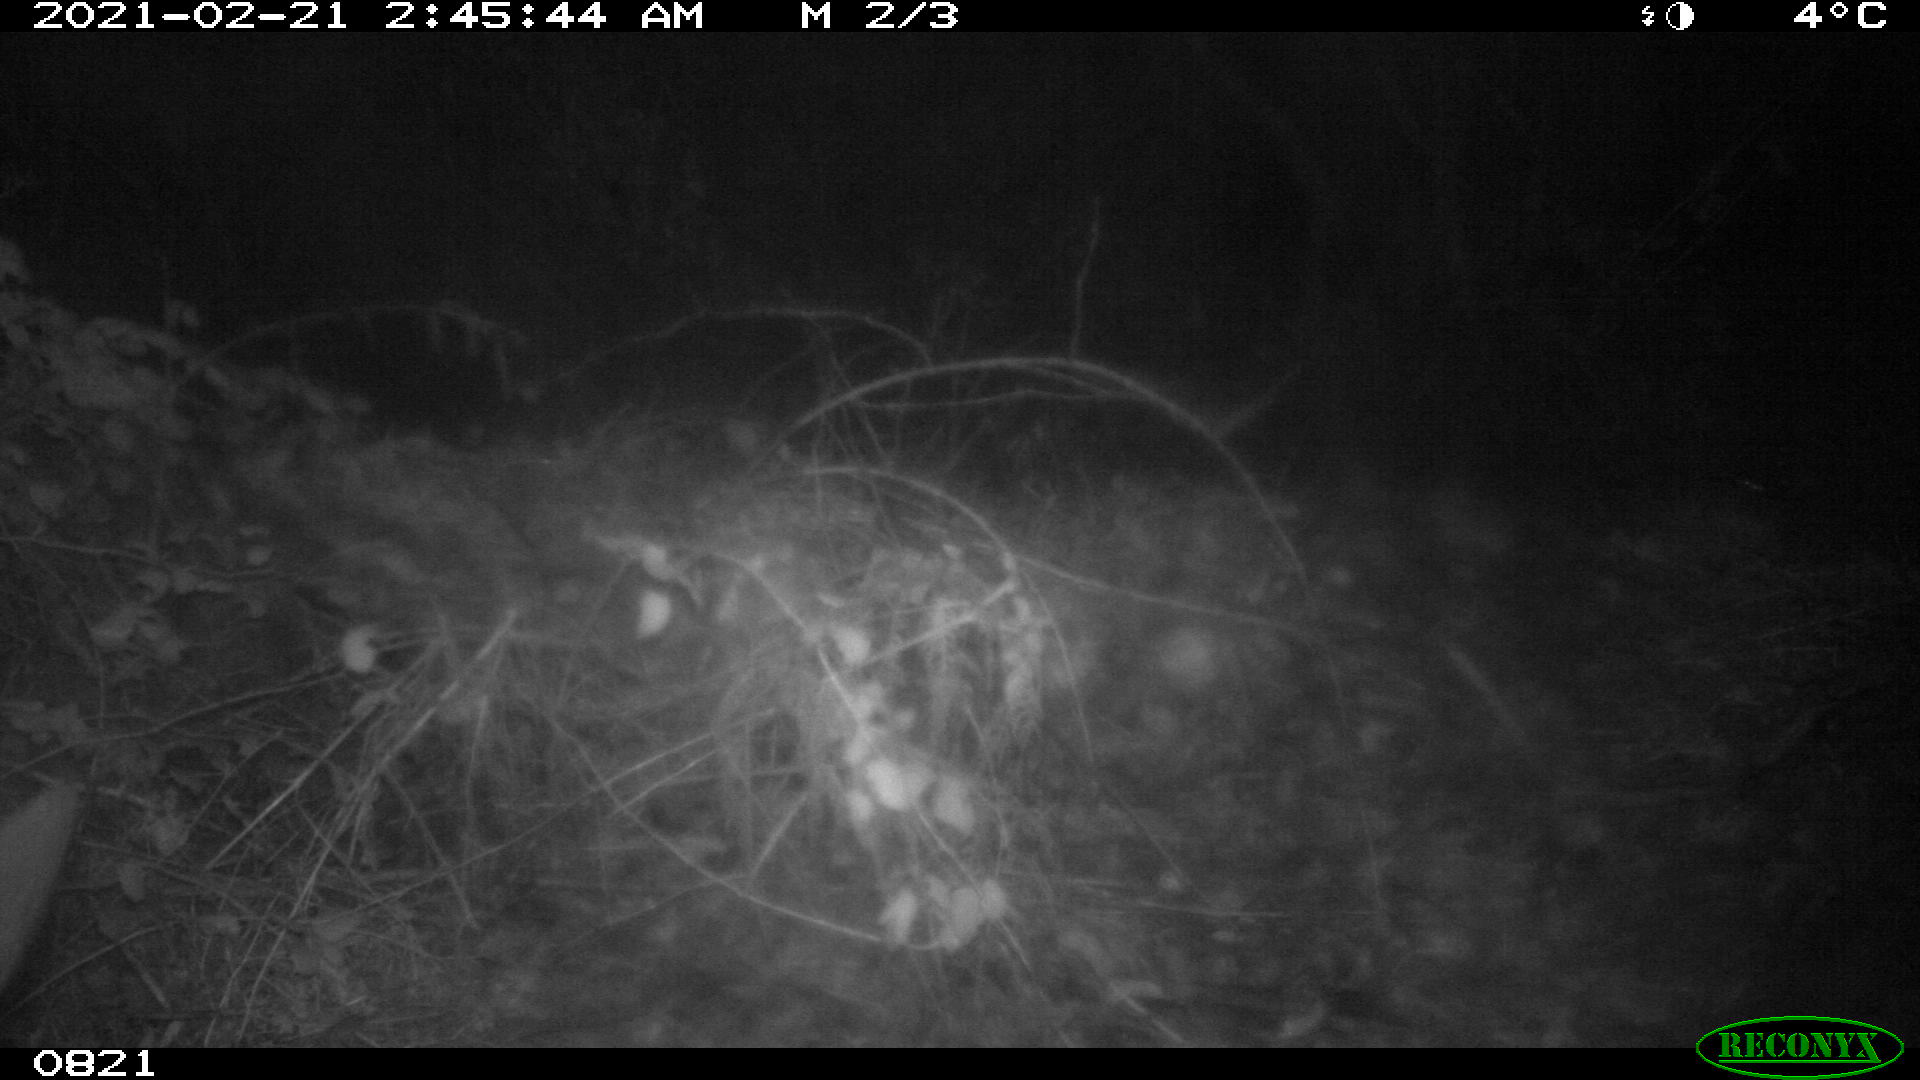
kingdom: Animalia
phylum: Chordata
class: Mammalia
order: Artiodactyla
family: Cervidae
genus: Capreolus
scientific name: Capreolus capreolus
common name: Western roe deer
